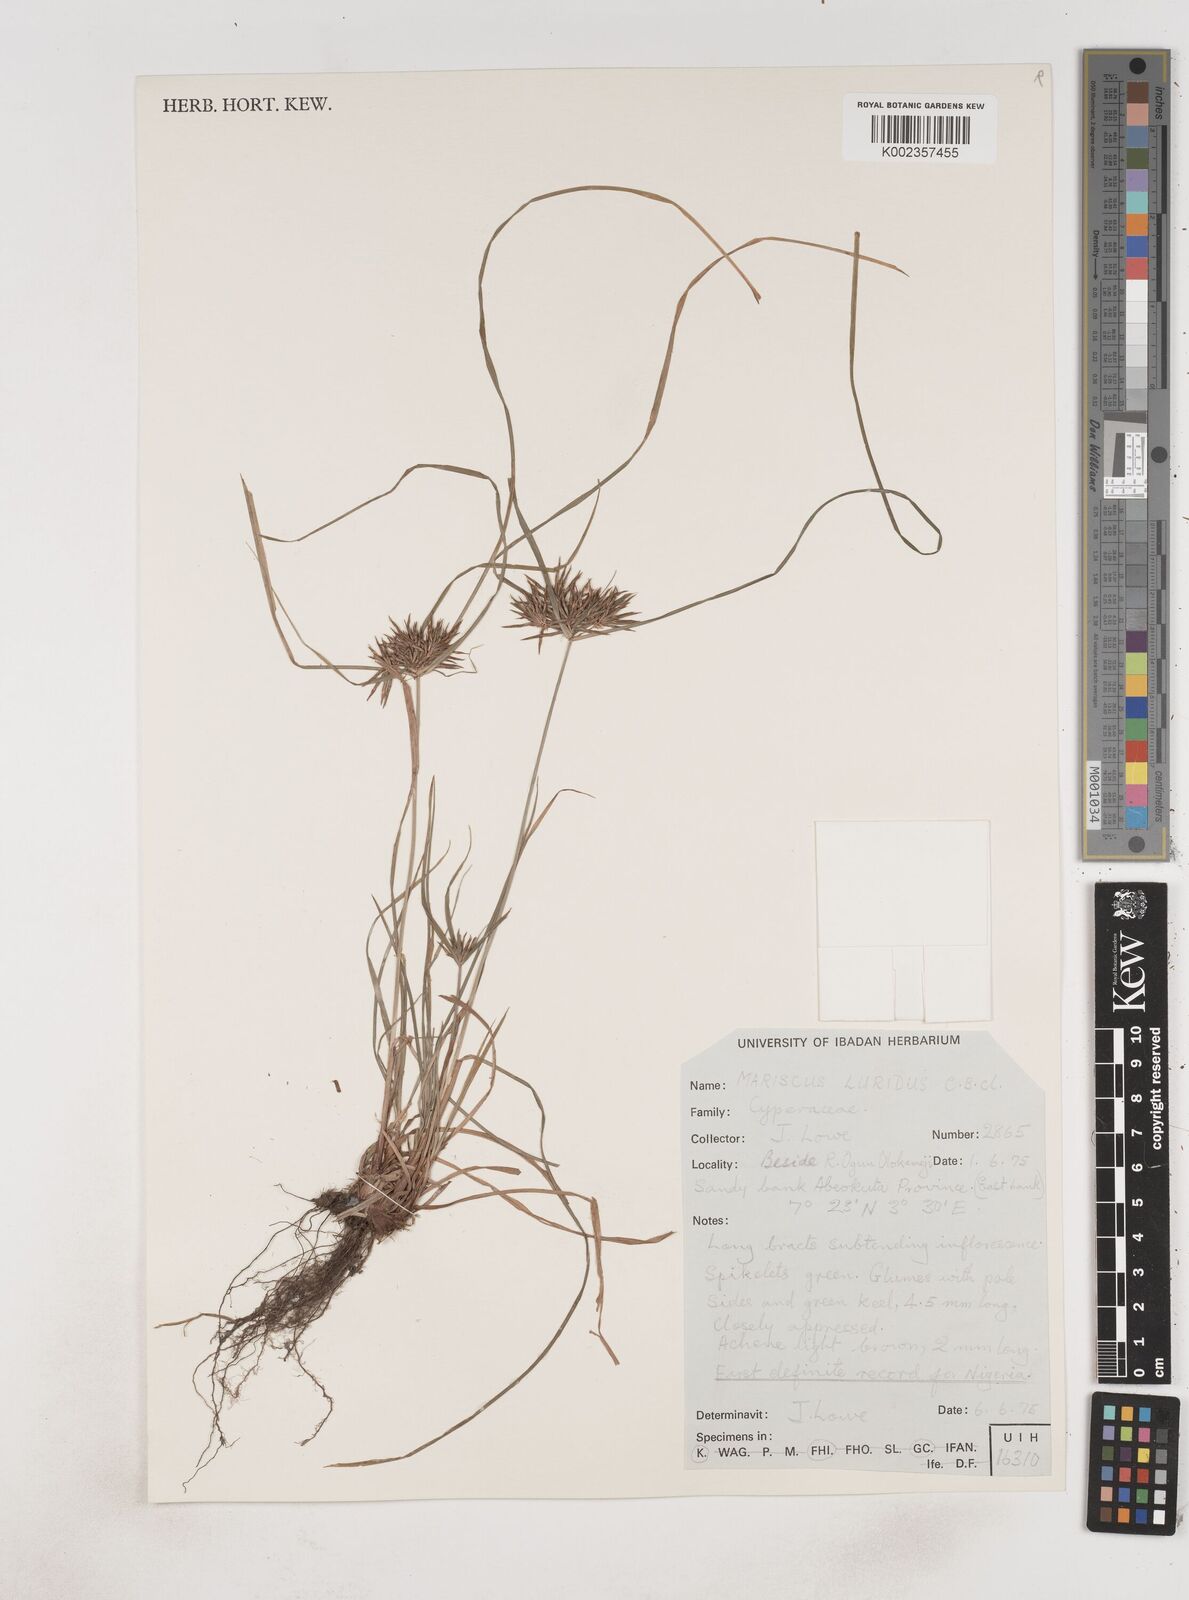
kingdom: Plantae
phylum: Tracheophyta
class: Liliopsida
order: Poales
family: Cyperaceae
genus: Cyperus
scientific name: Cyperus tenuis
